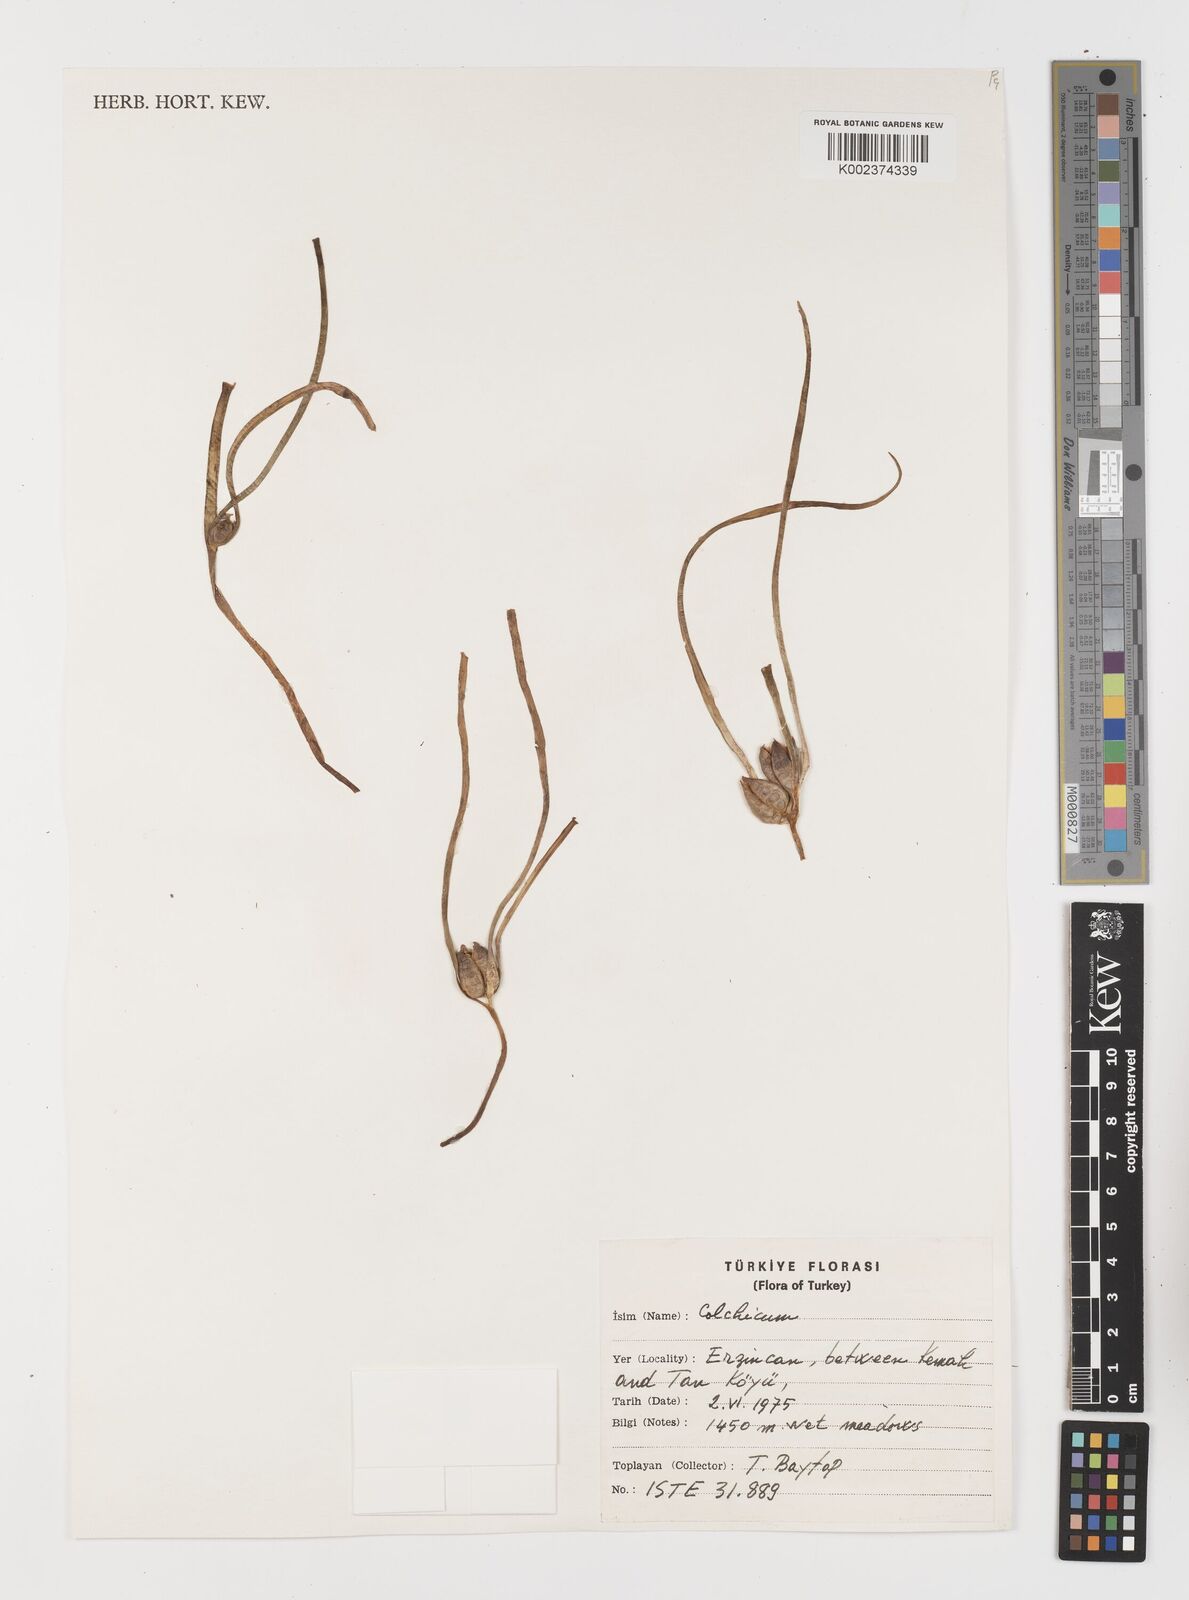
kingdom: Plantae
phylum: Tracheophyta
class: Liliopsida
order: Liliales
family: Colchicaceae
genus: Colchicum
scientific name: Colchicum
